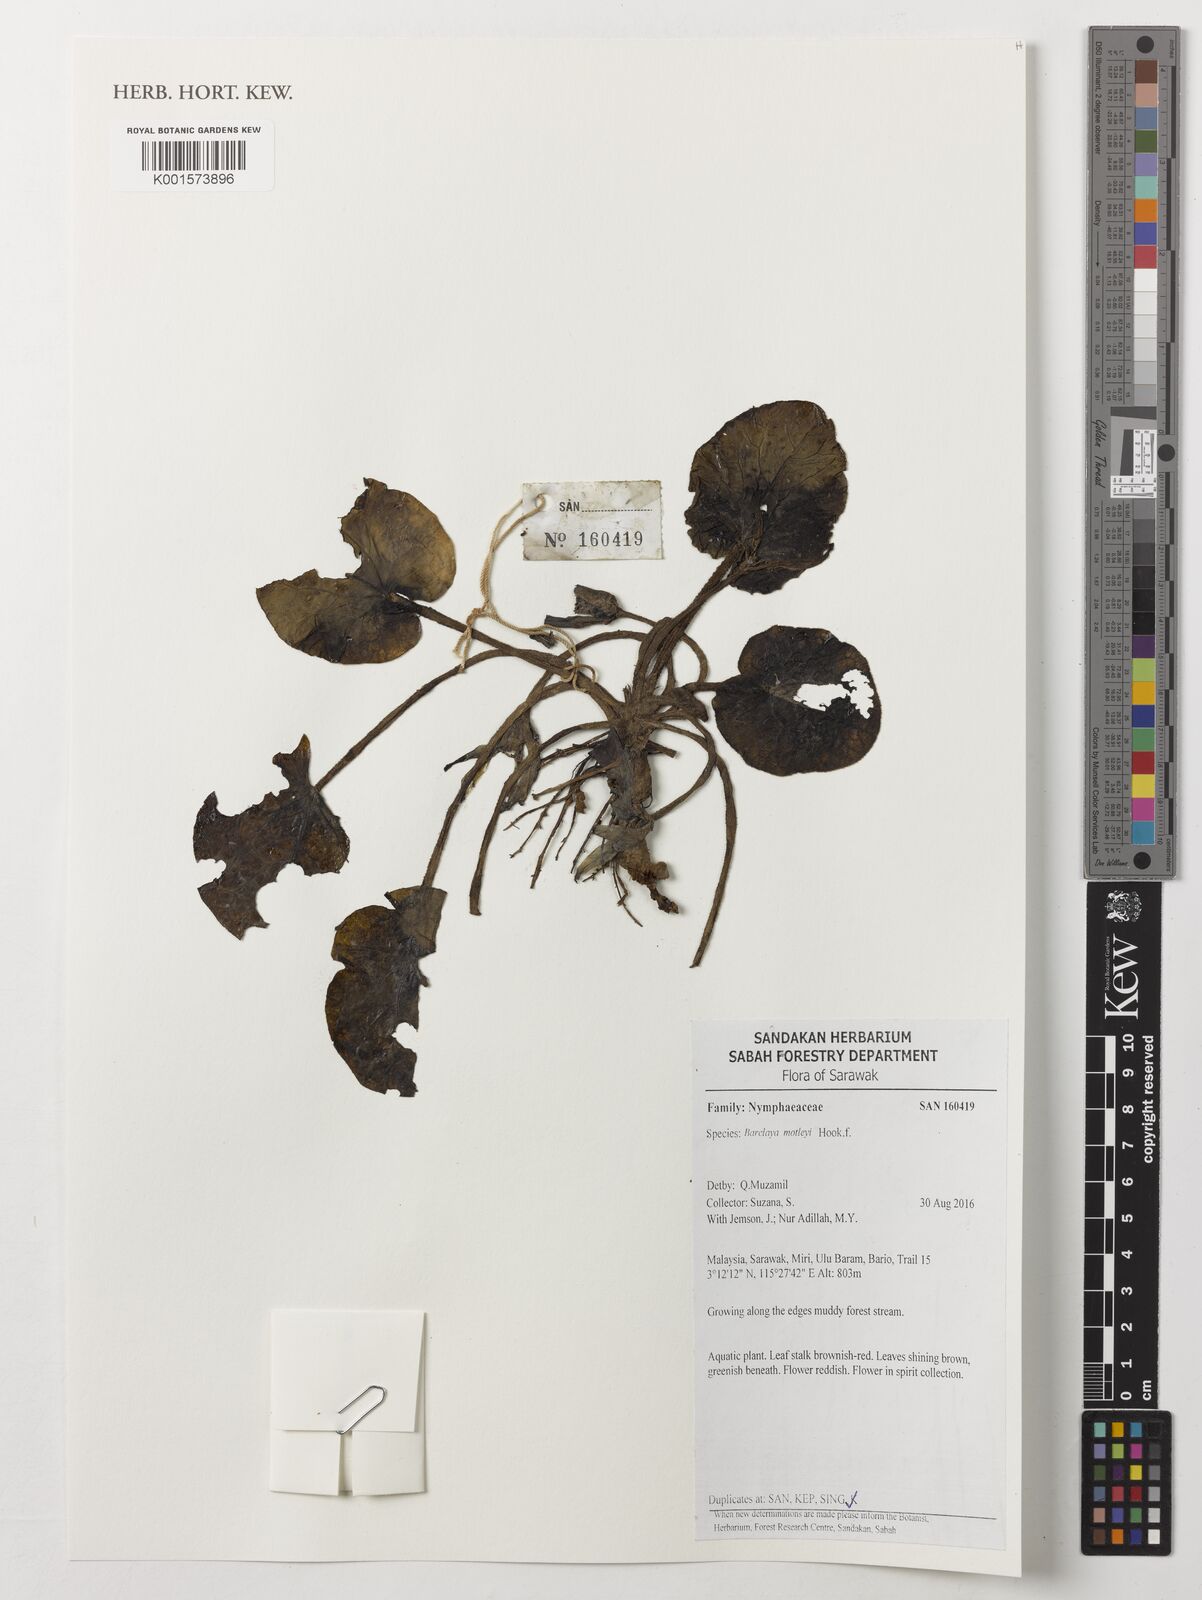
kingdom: Plantae
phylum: Tracheophyta
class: Magnoliopsida
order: Nymphaeales
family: Nymphaeaceae
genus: Barclaya
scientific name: Barclaya motleyi
